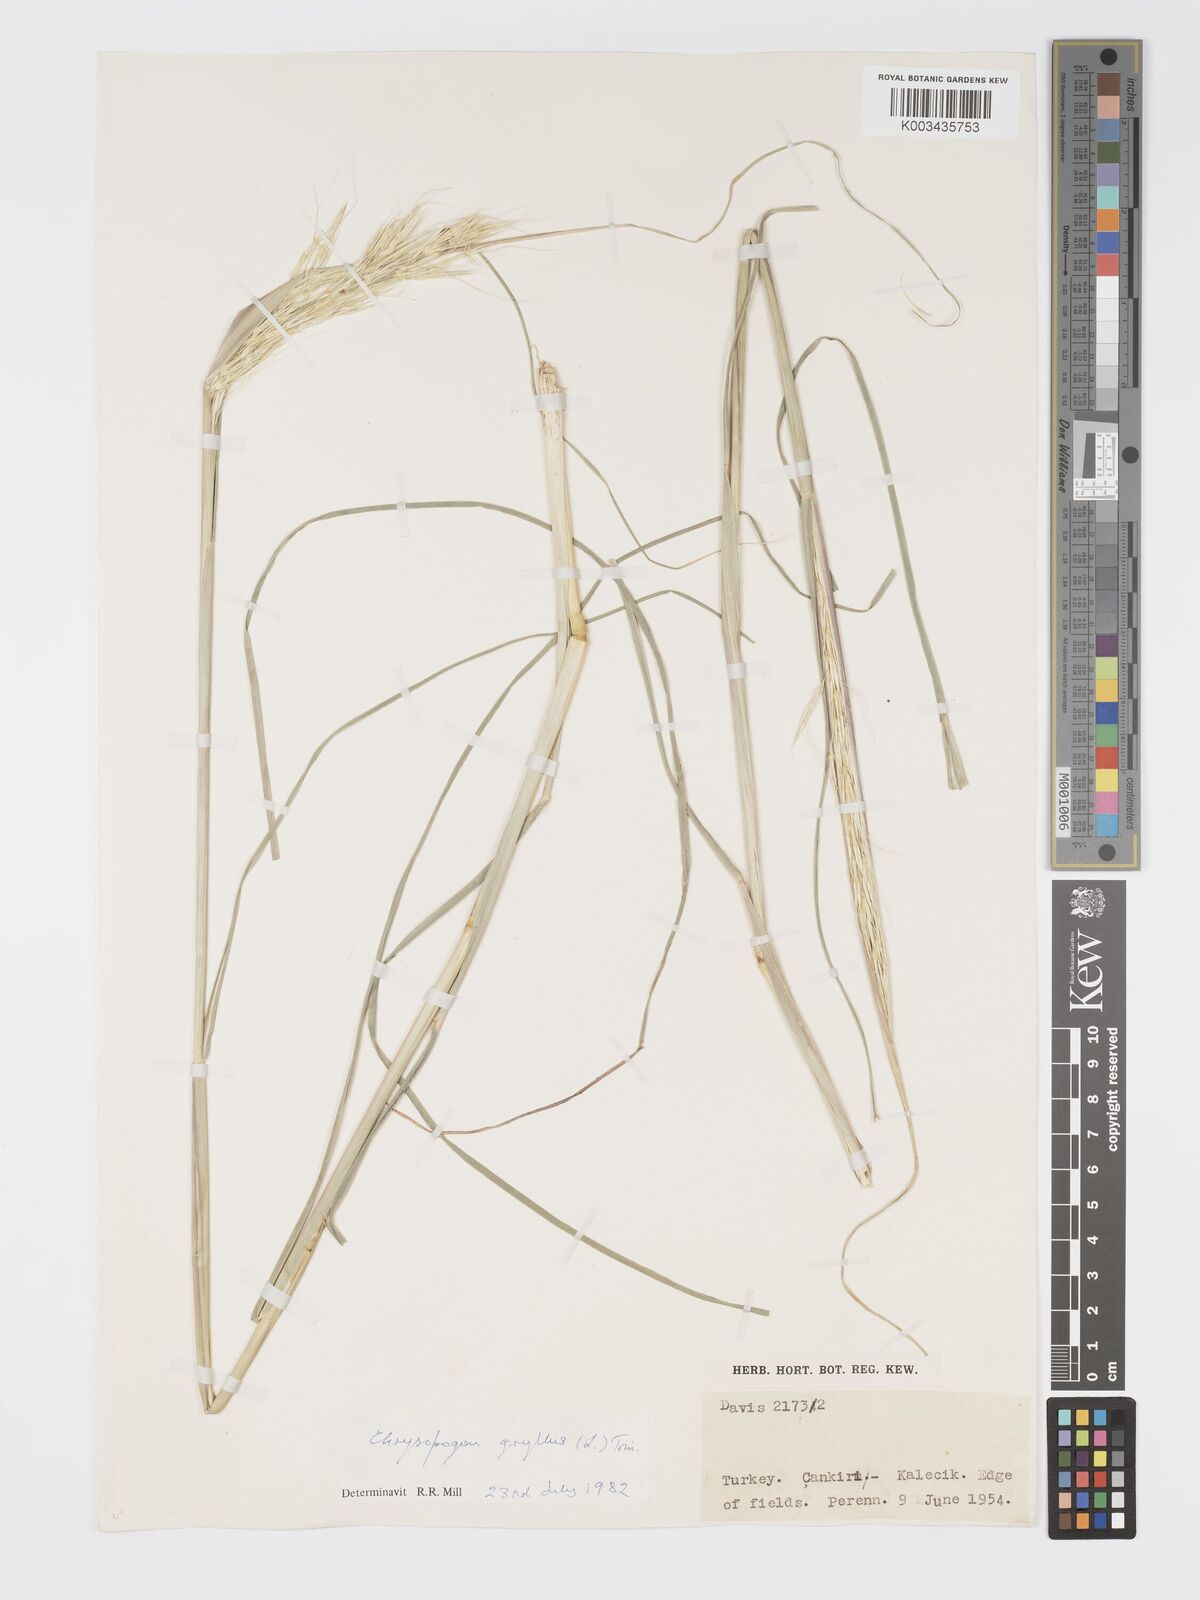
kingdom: Plantae
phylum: Tracheophyta
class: Liliopsida
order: Poales
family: Poaceae
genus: Chrysopogon
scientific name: Chrysopogon gryllus
